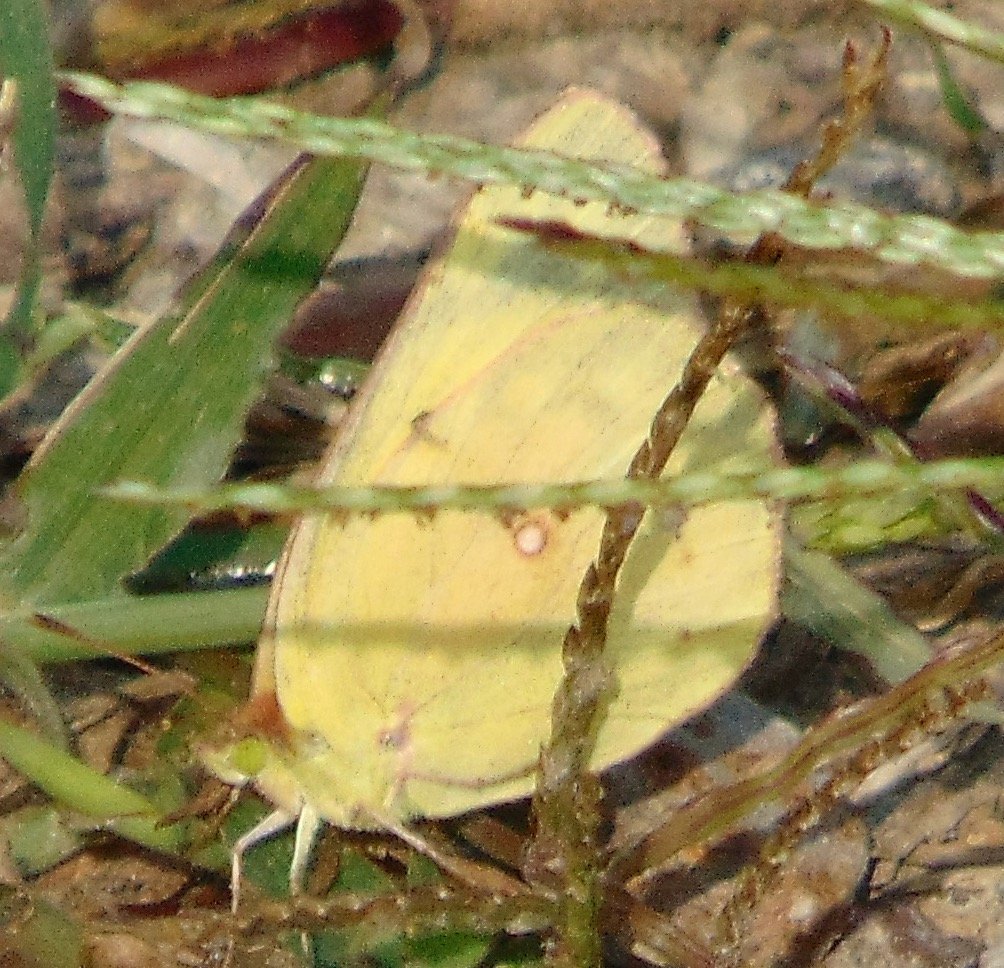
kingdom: Animalia
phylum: Arthropoda
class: Insecta
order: Lepidoptera
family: Pieridae
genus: Colias
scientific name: Colias eurytheme
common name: Orange Sulphur
